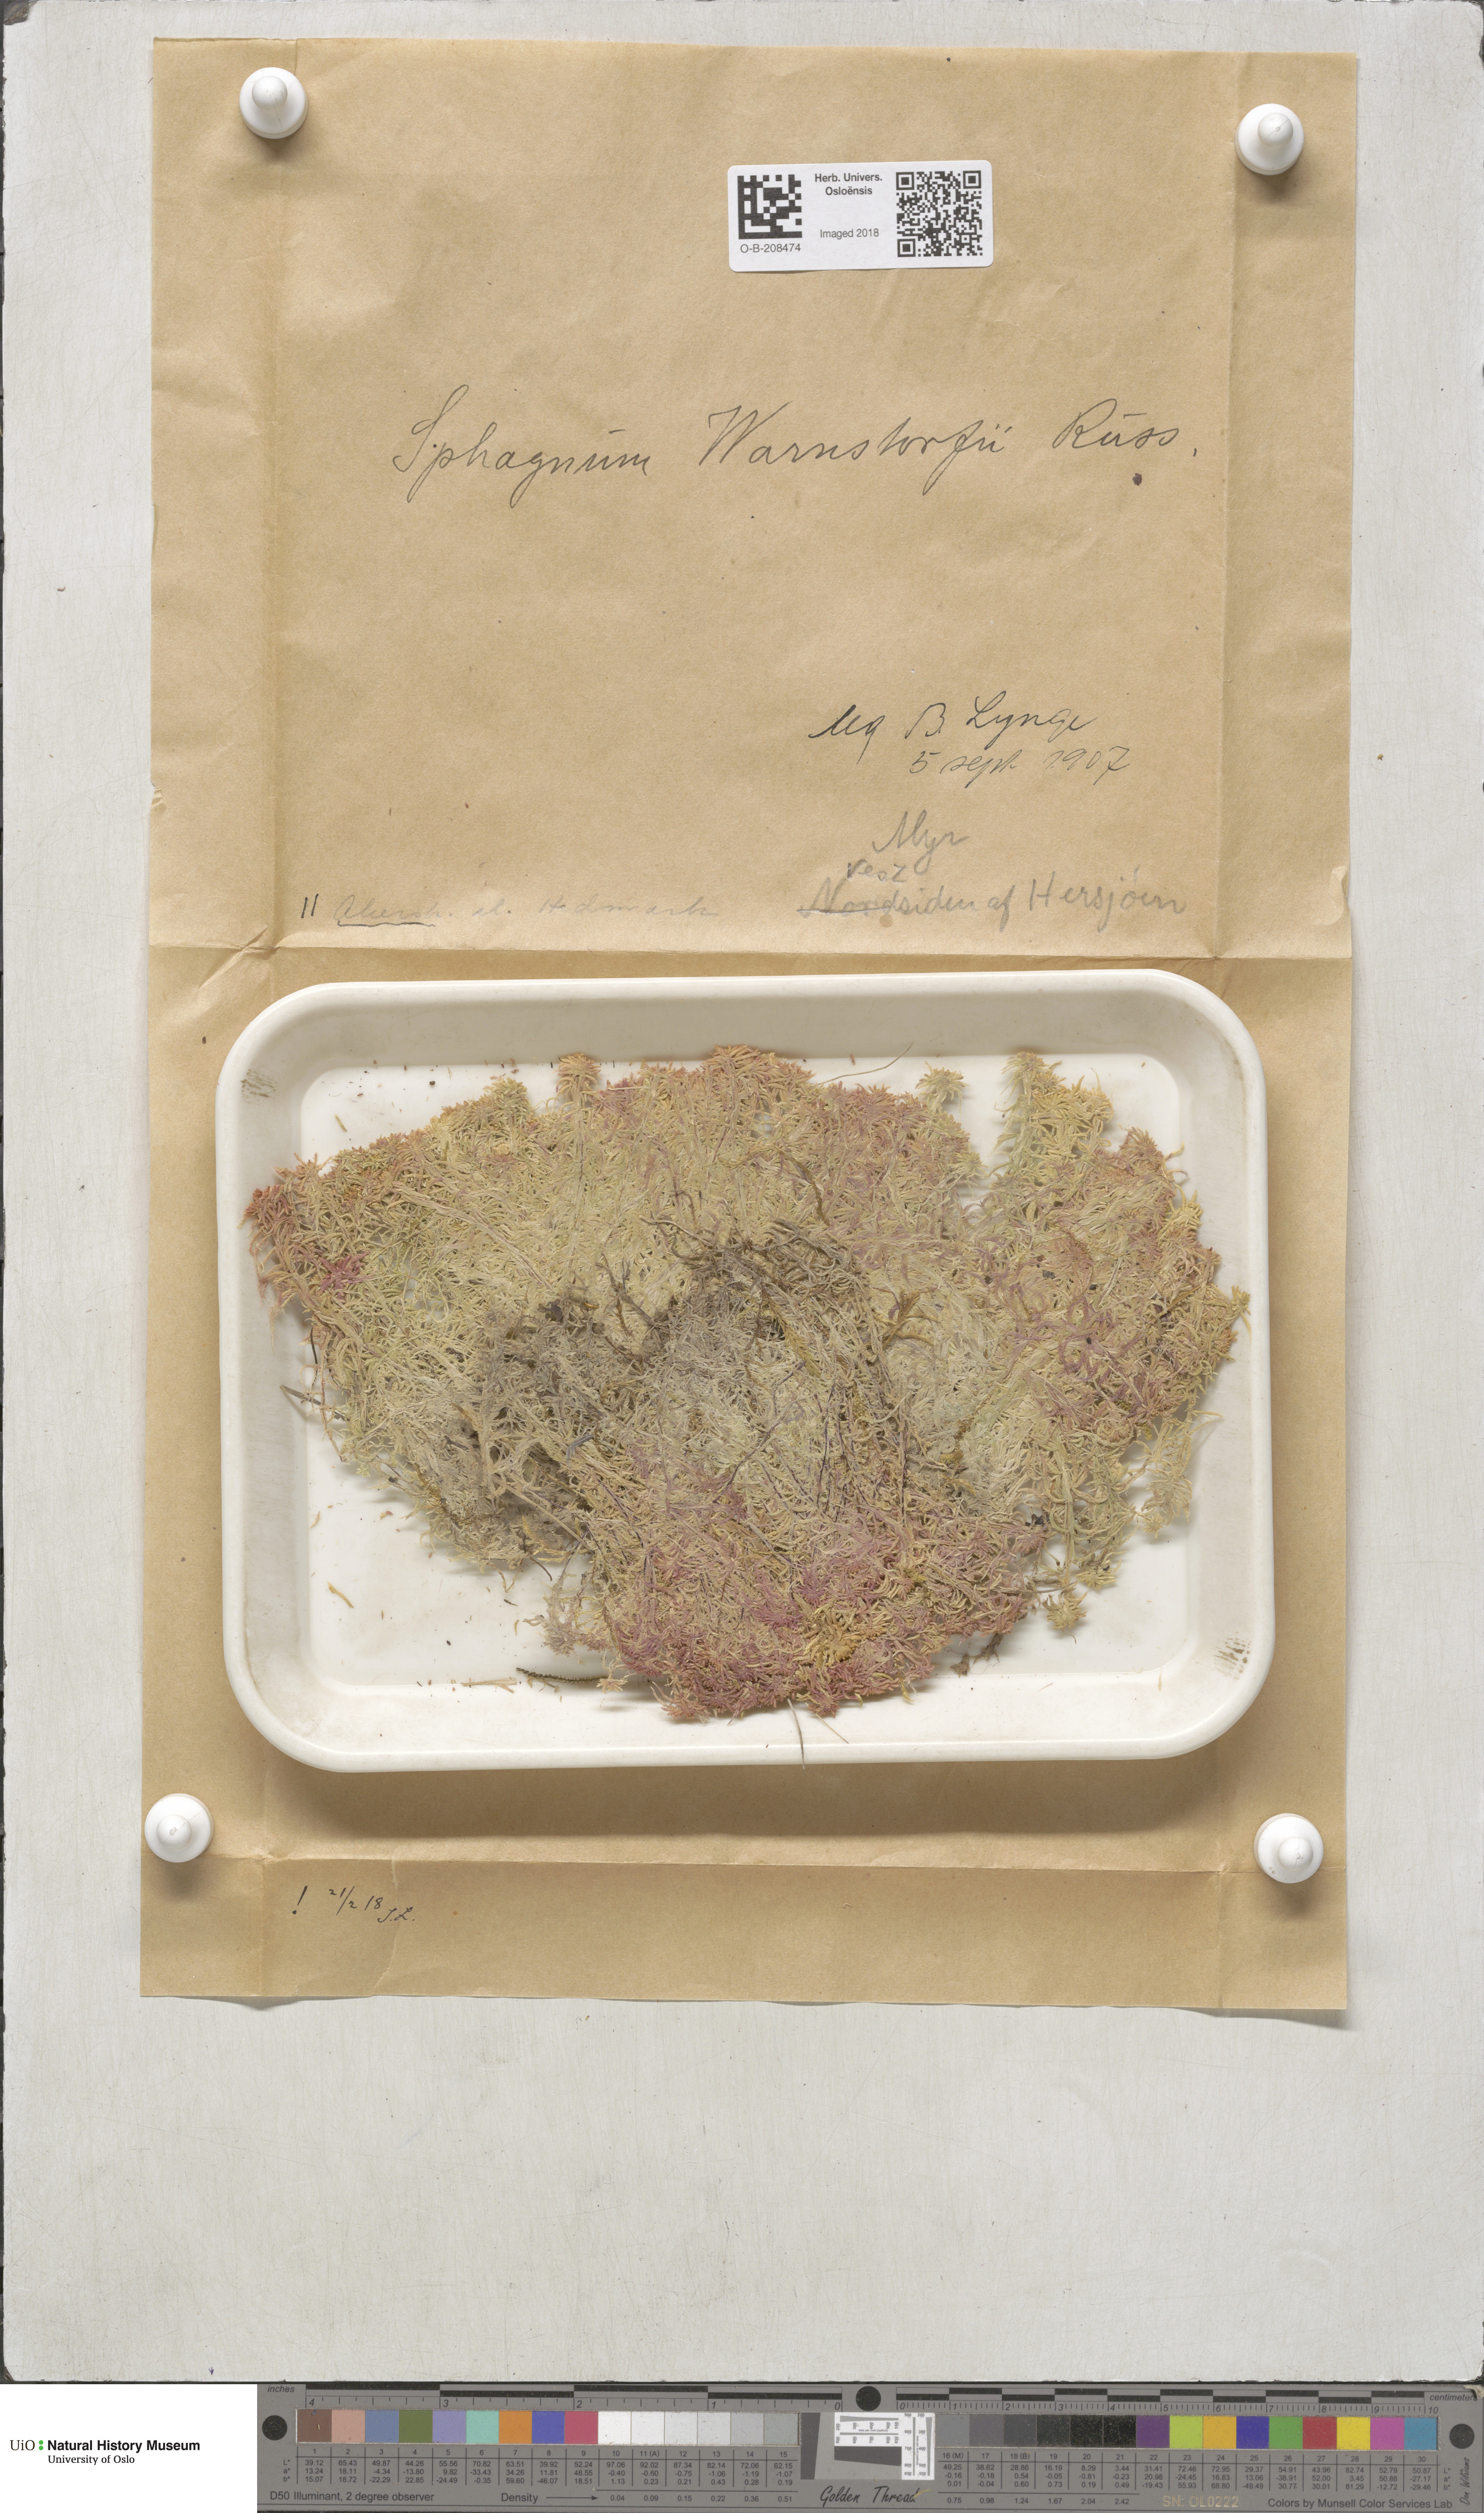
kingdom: Plantae
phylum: Bryophyta
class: Sphagnopsida
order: Sphagnales
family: Sphagnaceae
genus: Sphagnum
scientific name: Sphagnum warnstorfii
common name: Warnstorf's peat moss
